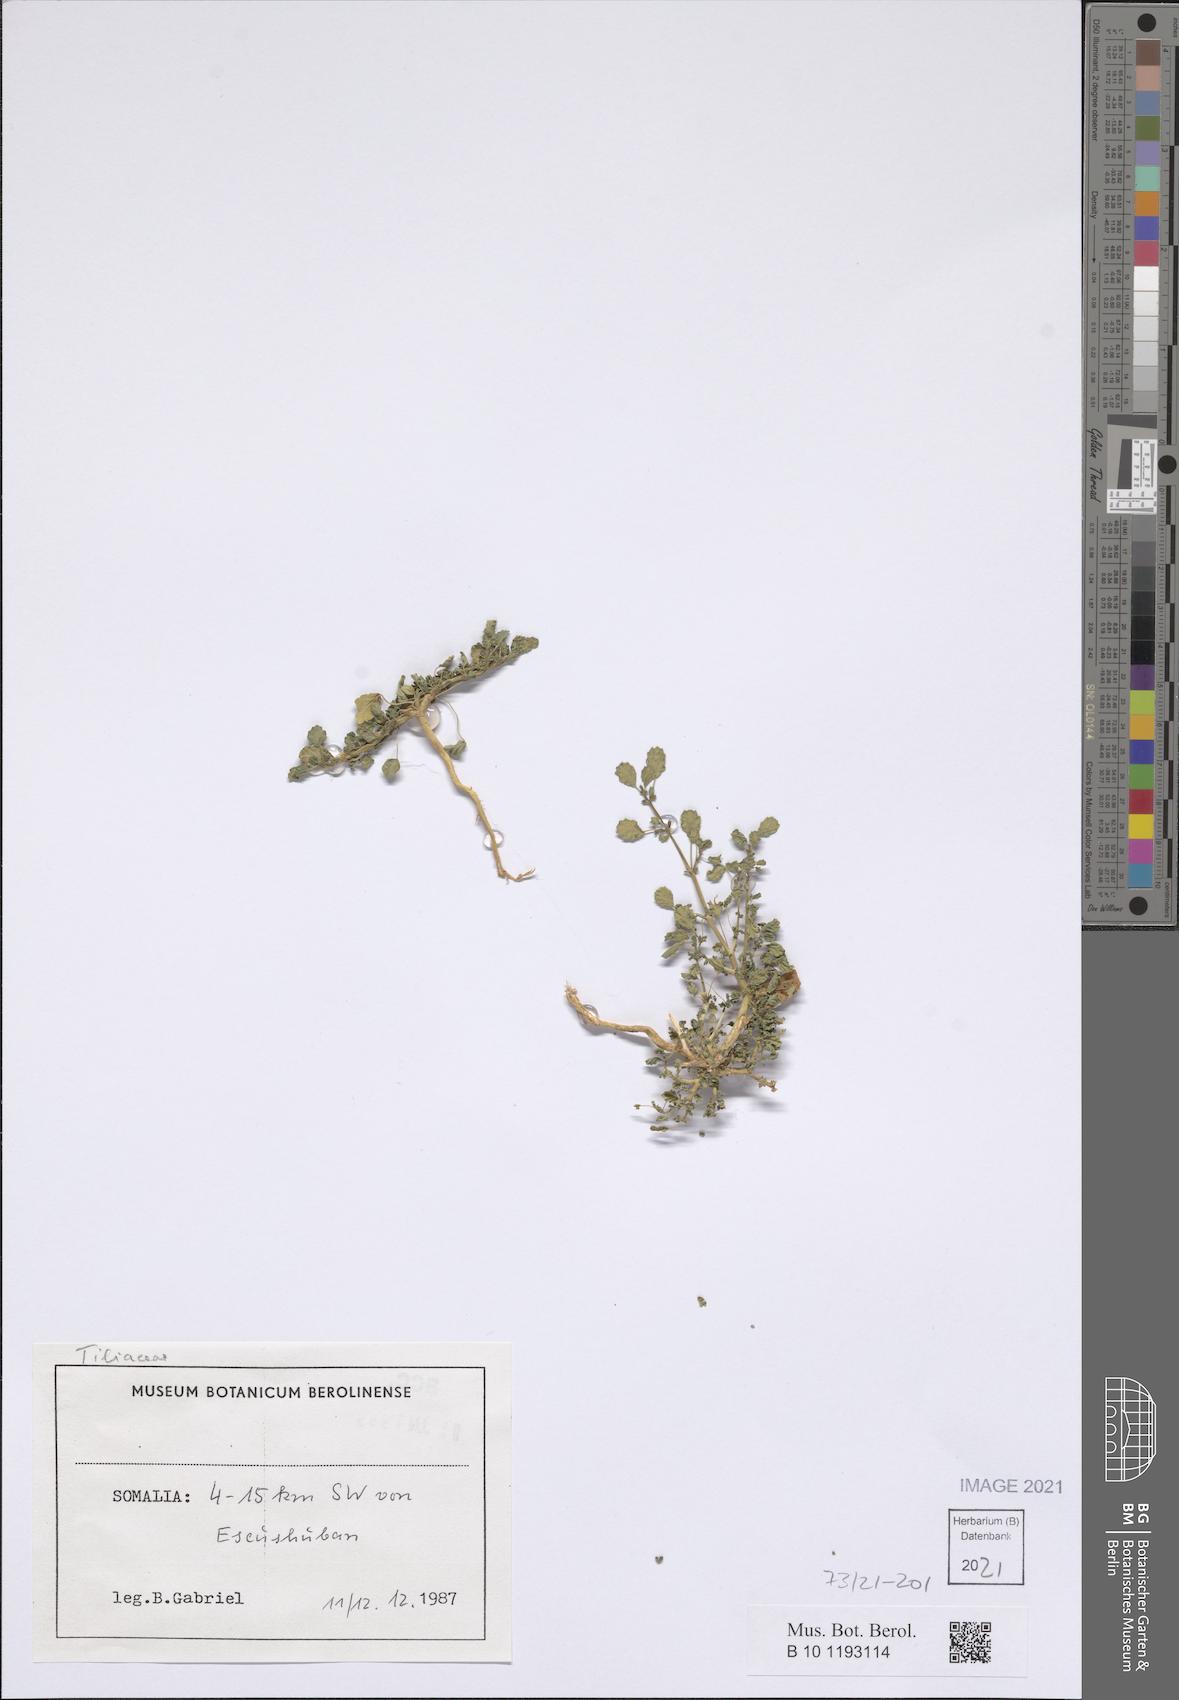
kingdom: Plantae
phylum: Tracheophyta
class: Magnoliopsida
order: Malvales
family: Tiliaceae
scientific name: Tiliaceae
